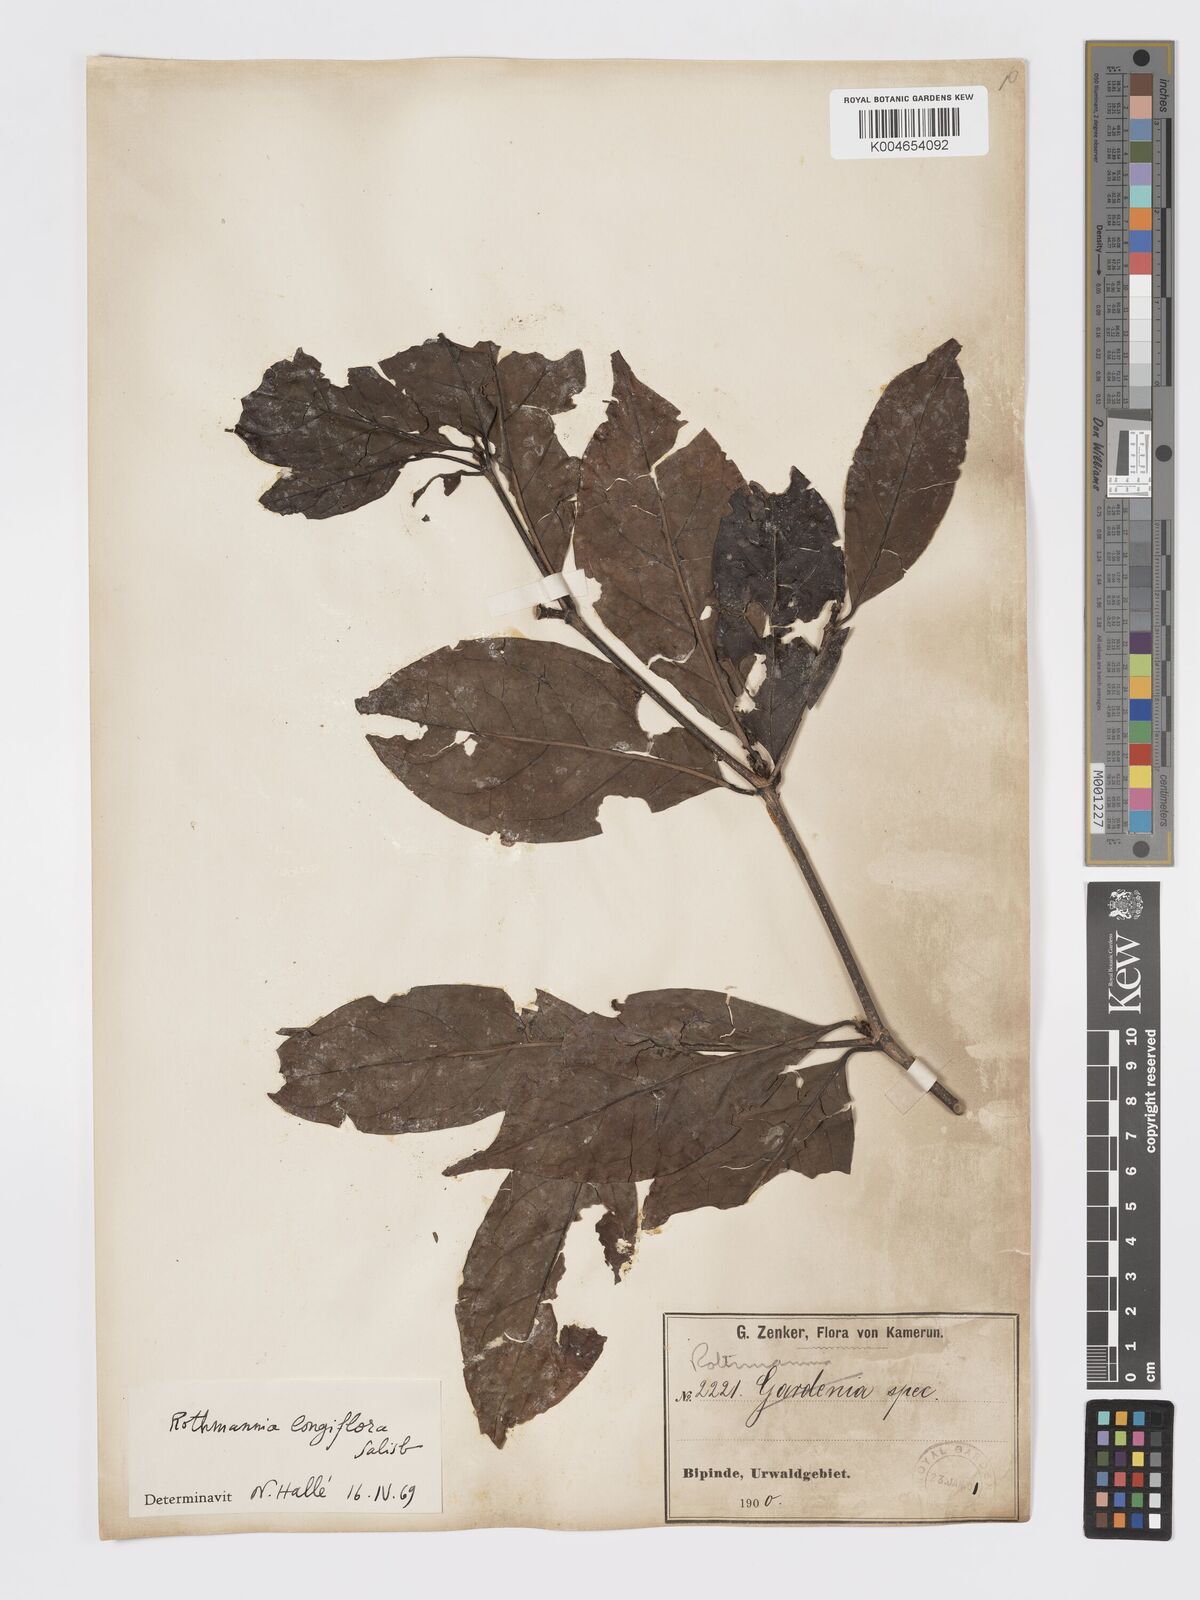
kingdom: Plantae
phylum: Tracheophyta
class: Magnoliopsida
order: Gentianales
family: Rubiaceae
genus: Rothmannia
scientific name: Rothmannia longiflora
